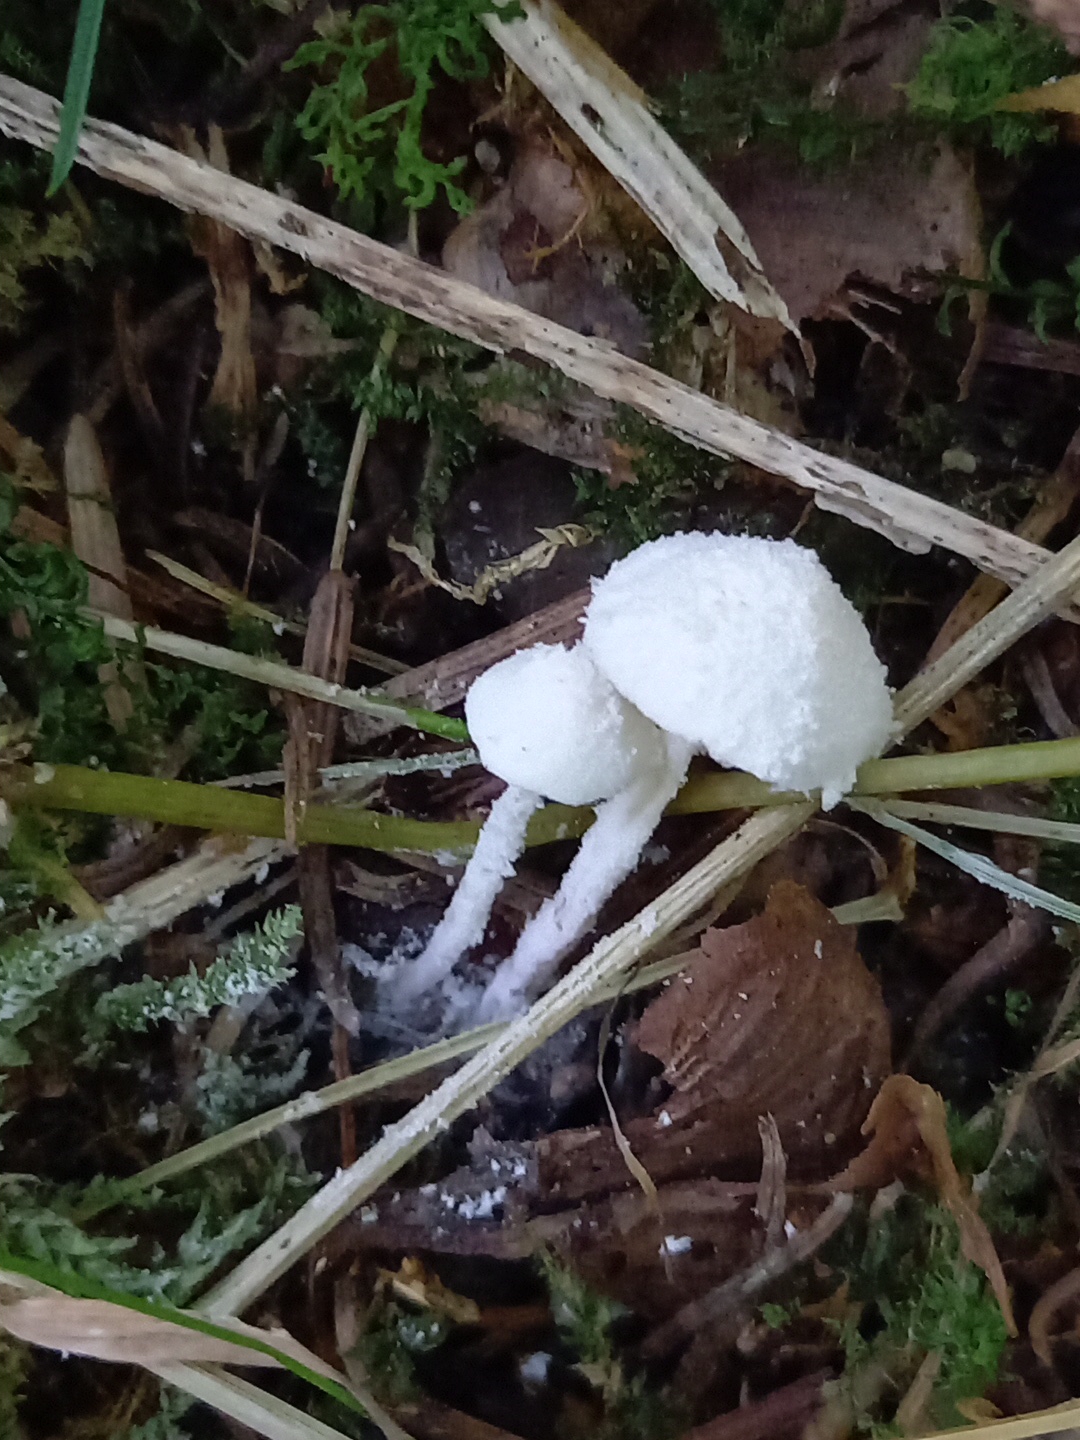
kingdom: Fungi
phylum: Basidiomycota
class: Agaricomycetes
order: Agaricales
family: Agaricaceae
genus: Cystolepiota
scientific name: Cystolepiota seminuda
